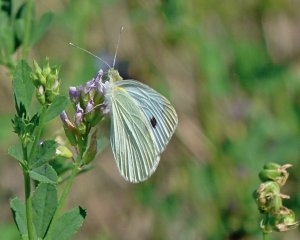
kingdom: Animalia
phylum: Arthropoda
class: Insecta
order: Lepidoptera
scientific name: Lepidoptera
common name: Butterflies
